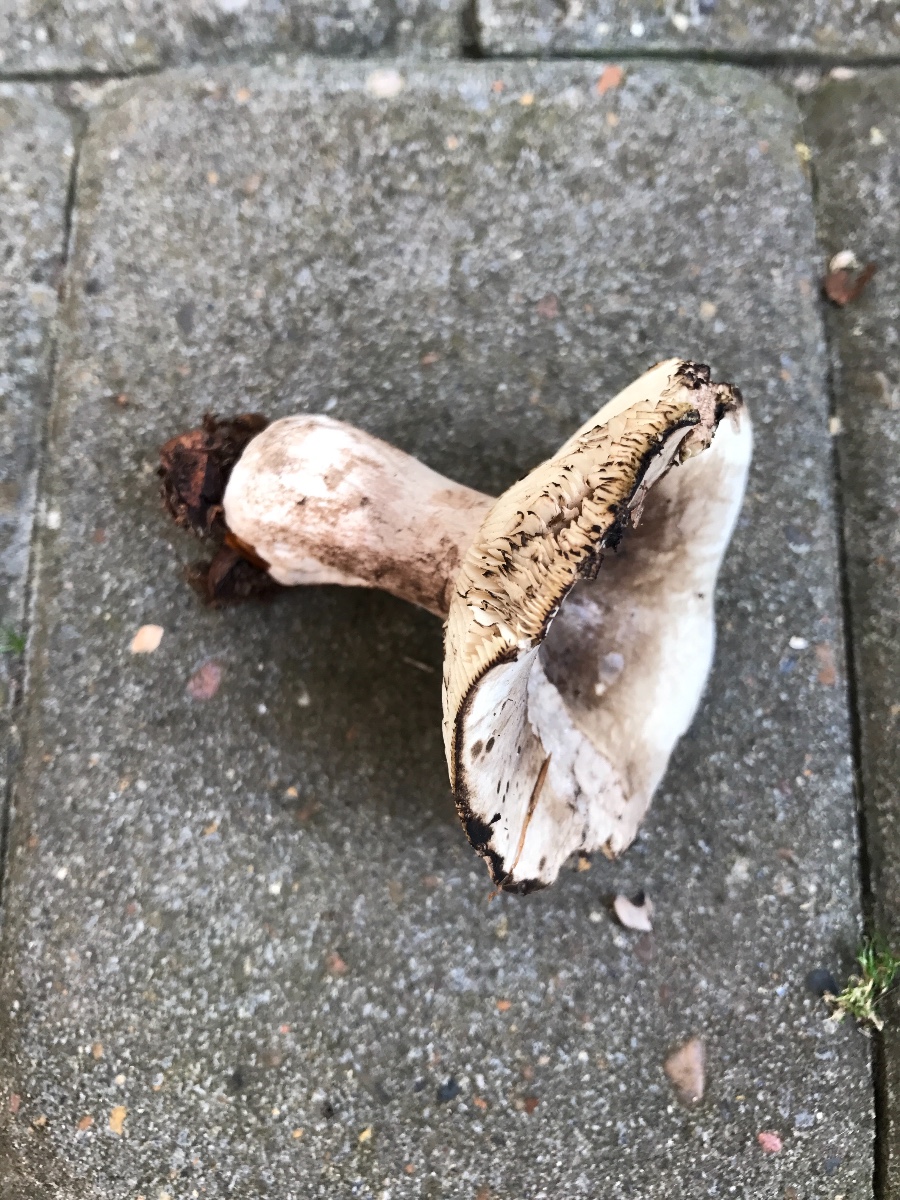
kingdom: Fungi
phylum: Basidiomycota
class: Agaricomycetes
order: Russulales
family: Russulaceae
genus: Russula
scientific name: Russula acrifolia
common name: skarpbladet skørhat
